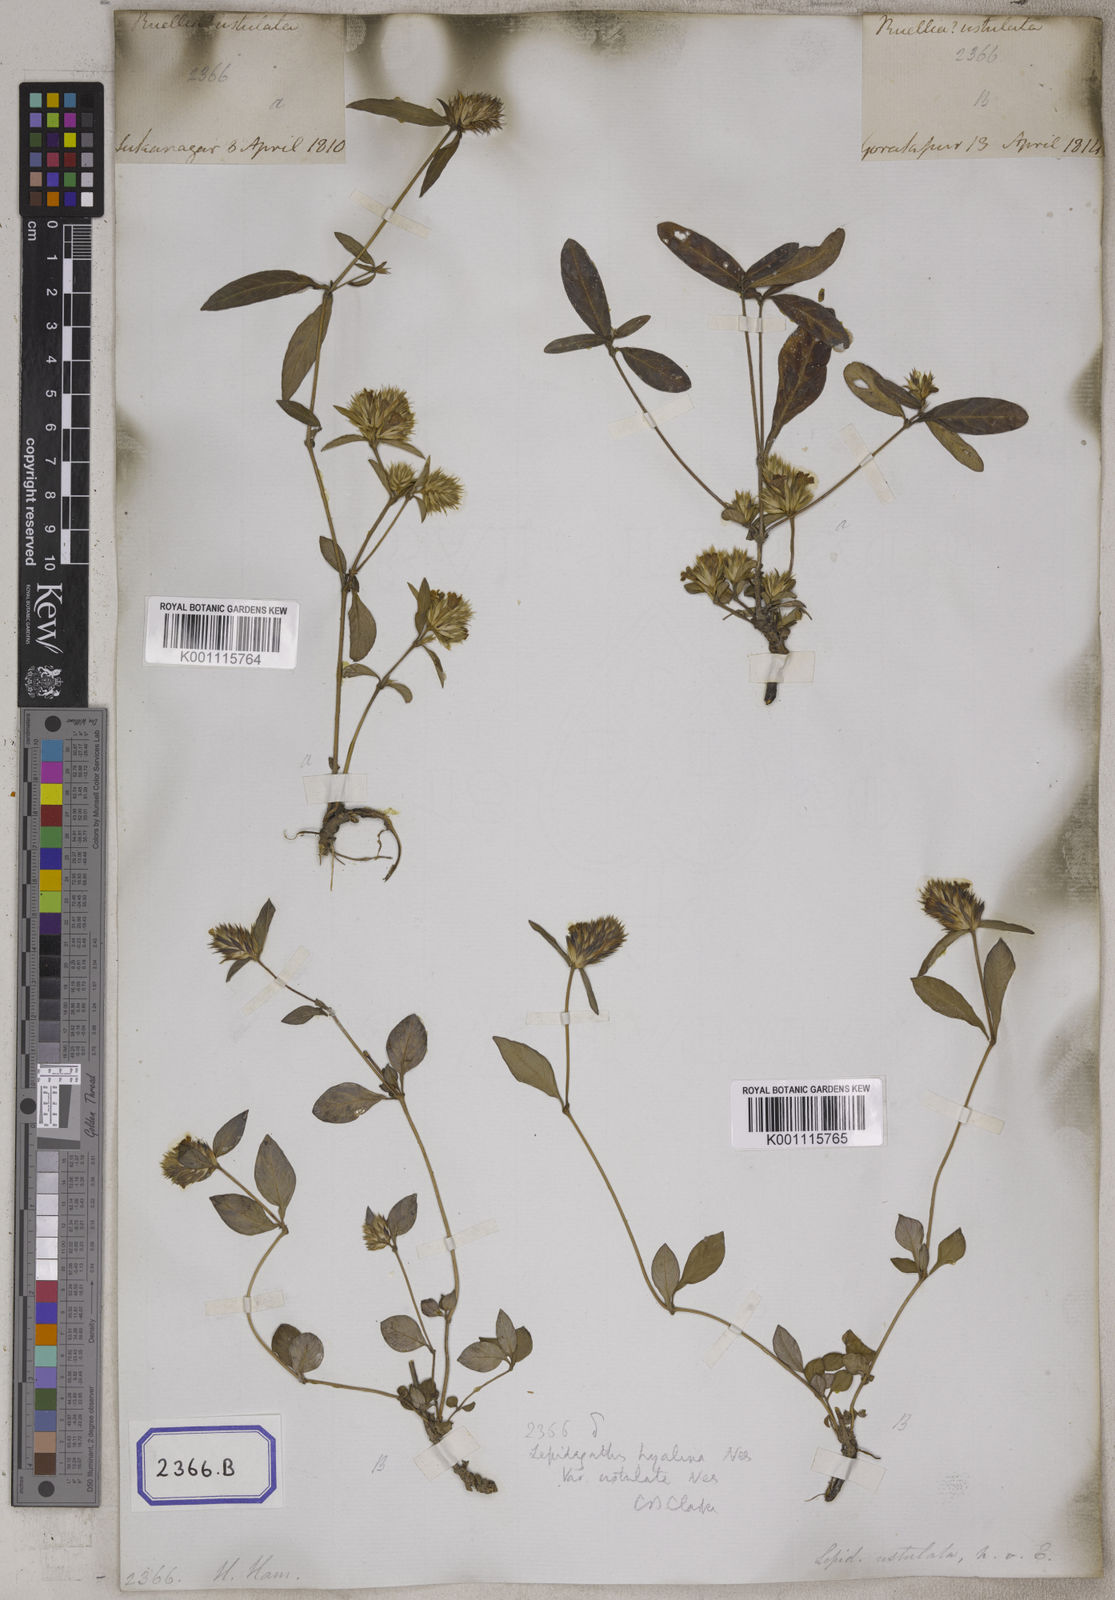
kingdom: Plantae
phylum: Tracheophyta
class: Magnoliopsida
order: Lamiales
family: Acanthaceae
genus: Lepidagathis
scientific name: Lepidagathis purpuricaulis
